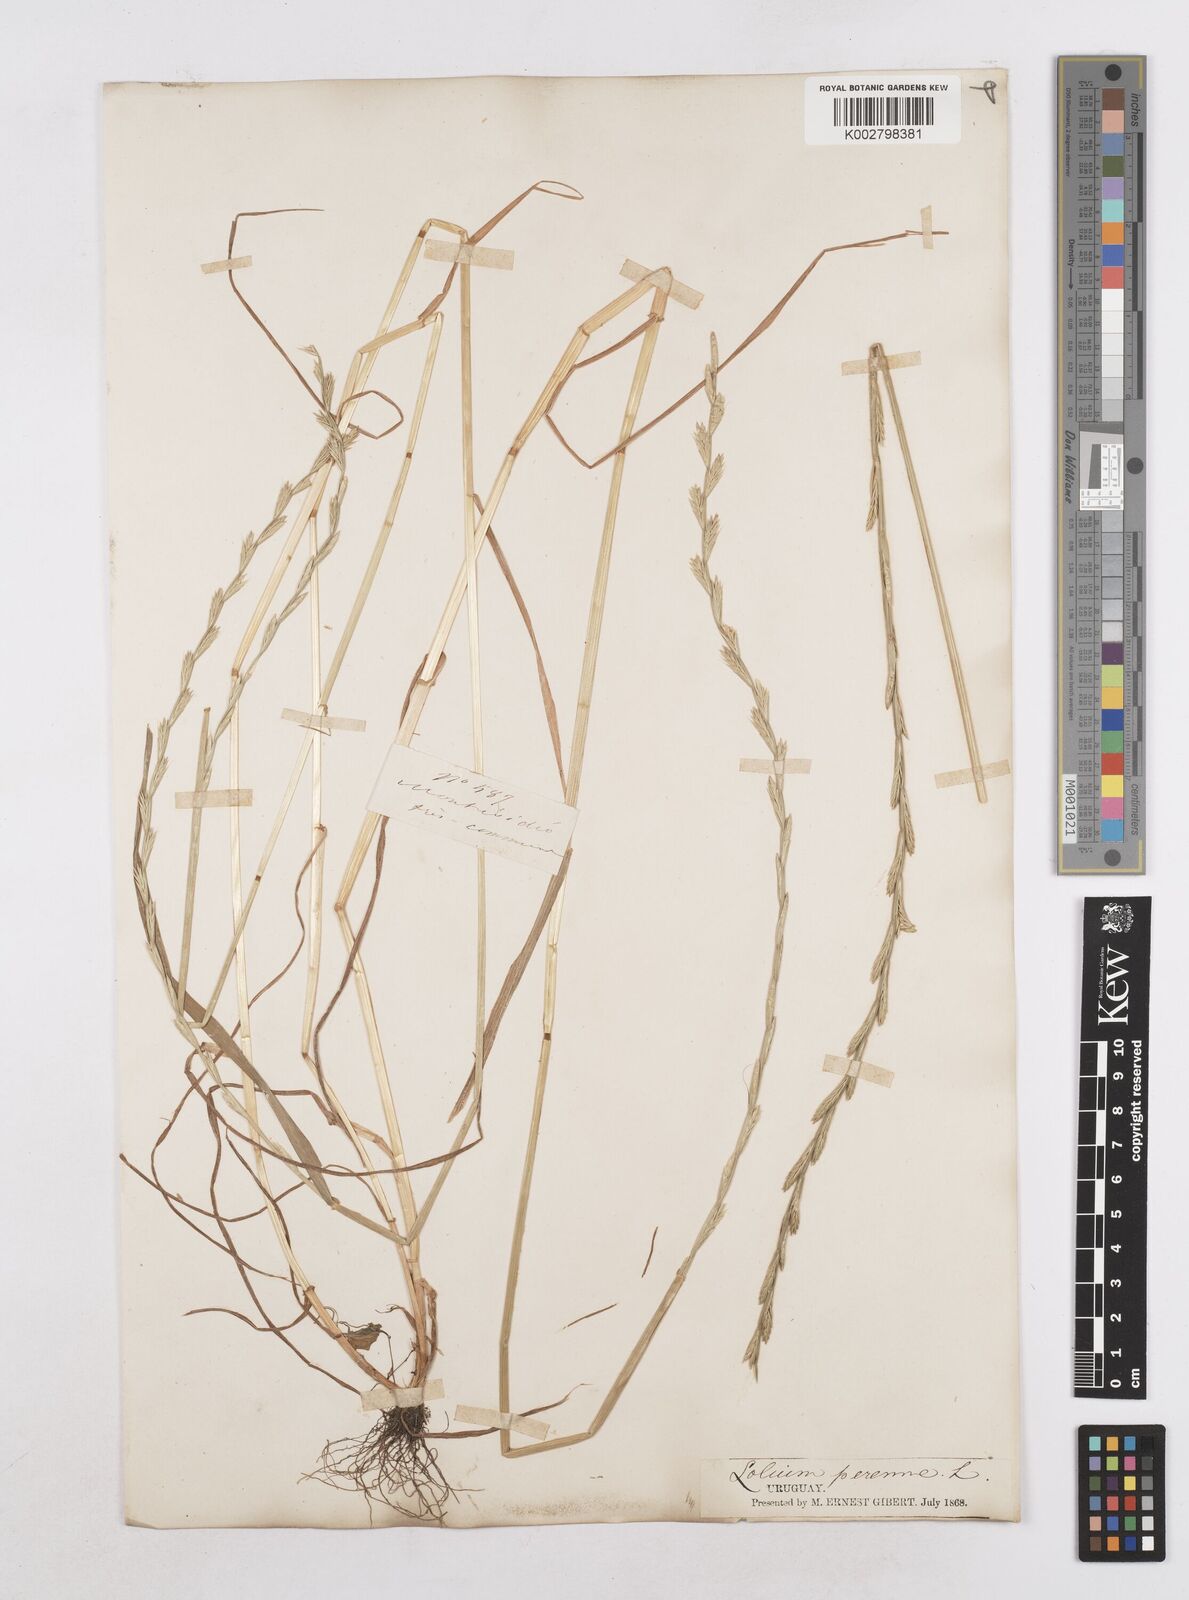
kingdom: Plantae
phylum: Tracheophyta
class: Liliopsida
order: Poales
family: Poaceae
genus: Lolium
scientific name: Lolium multiflorum
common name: Annual ryegrass
